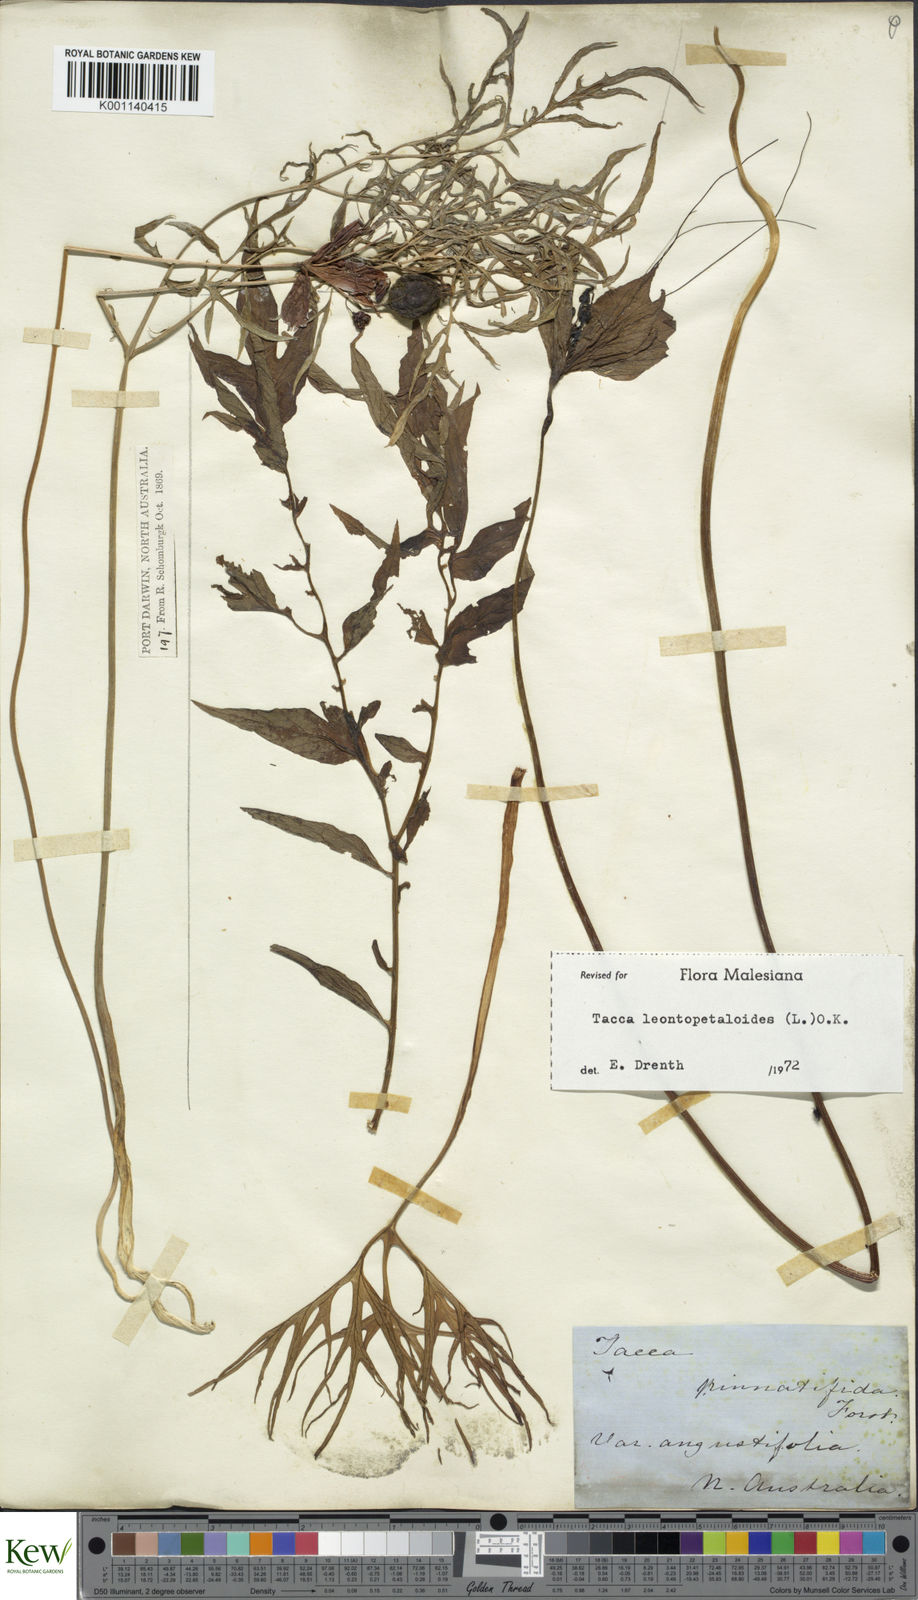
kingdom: Plantae
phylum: Tracheophyta
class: Liliopsida
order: Dioscoreales
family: Dioscoreaceae
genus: Tacca
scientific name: Tacca leontopetaloides
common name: Arrowroot
